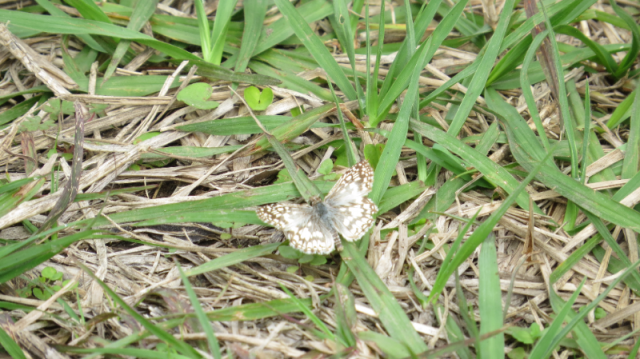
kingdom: Animalia
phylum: Arthropoda
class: Insecta
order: Lepidoptera
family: Hesperiidae
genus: Pyrgus
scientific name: Pyrgus oileus
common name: Tropical Checkered-Skipper
